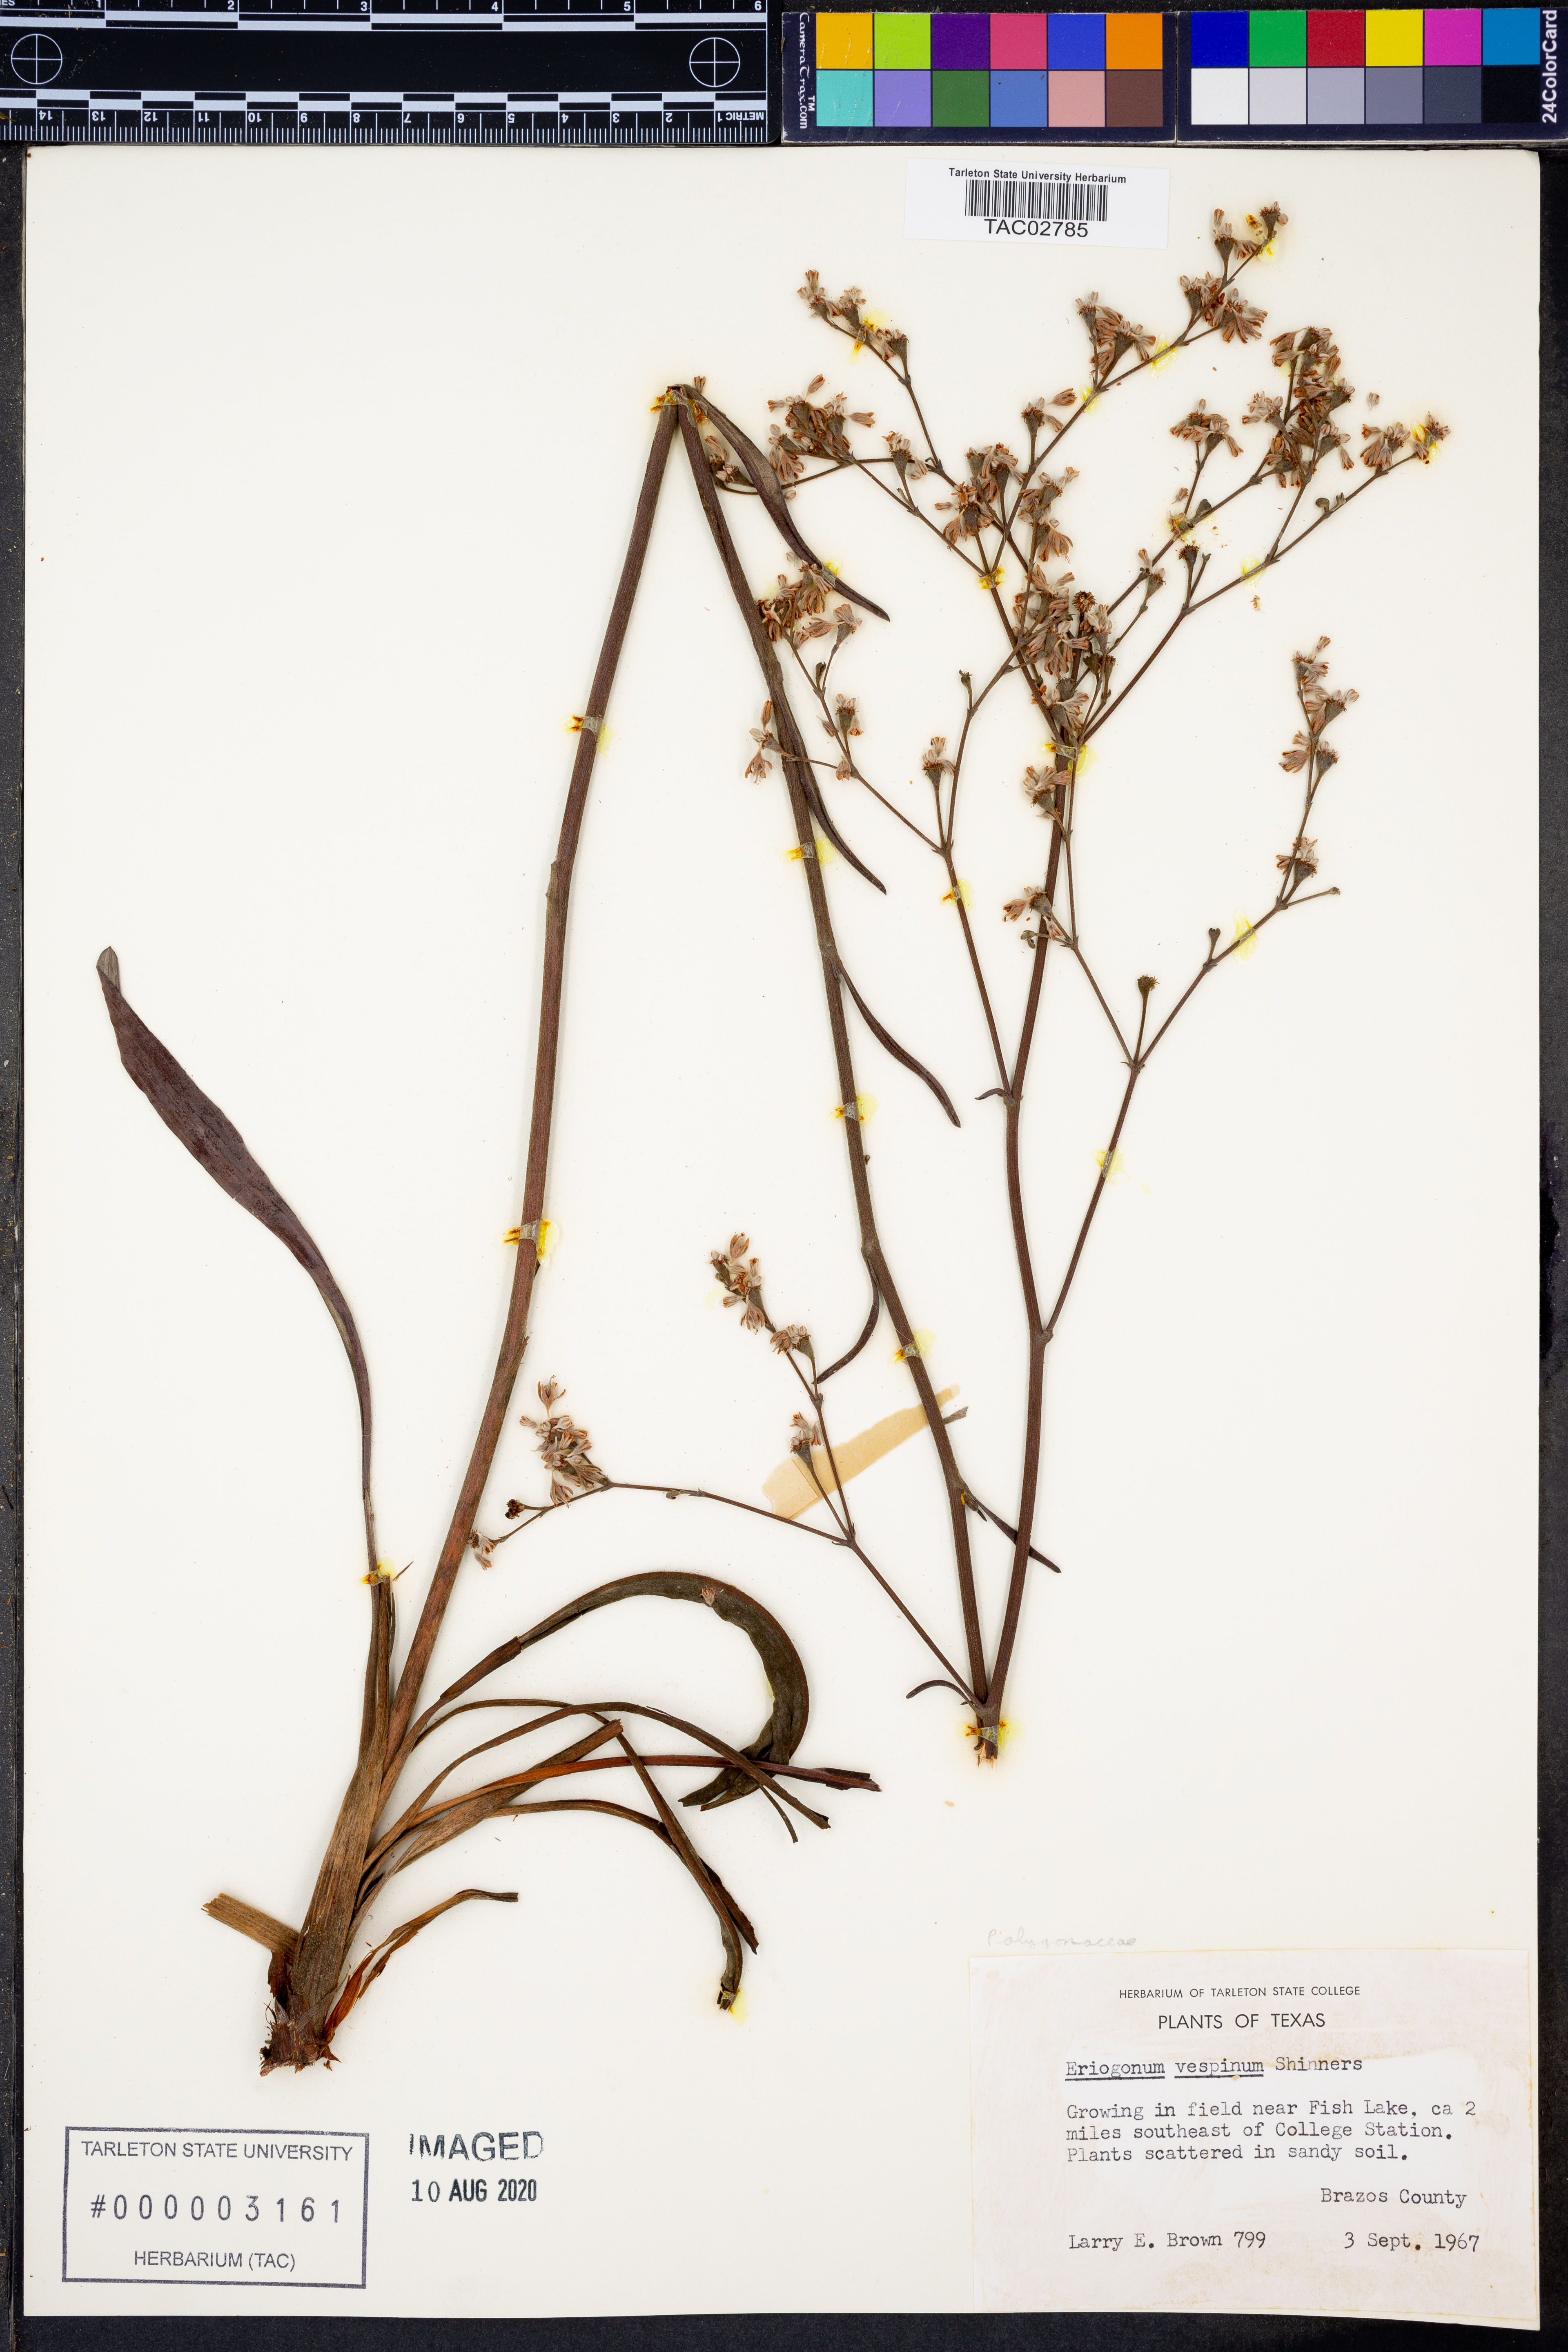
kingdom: Plantae
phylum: Tracheophyta
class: Magnoliopsida
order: Caryophyllales
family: Polygonaceae
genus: Eriogonum
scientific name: Eriogonum longifolium
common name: Longleaf wild buckwheat
